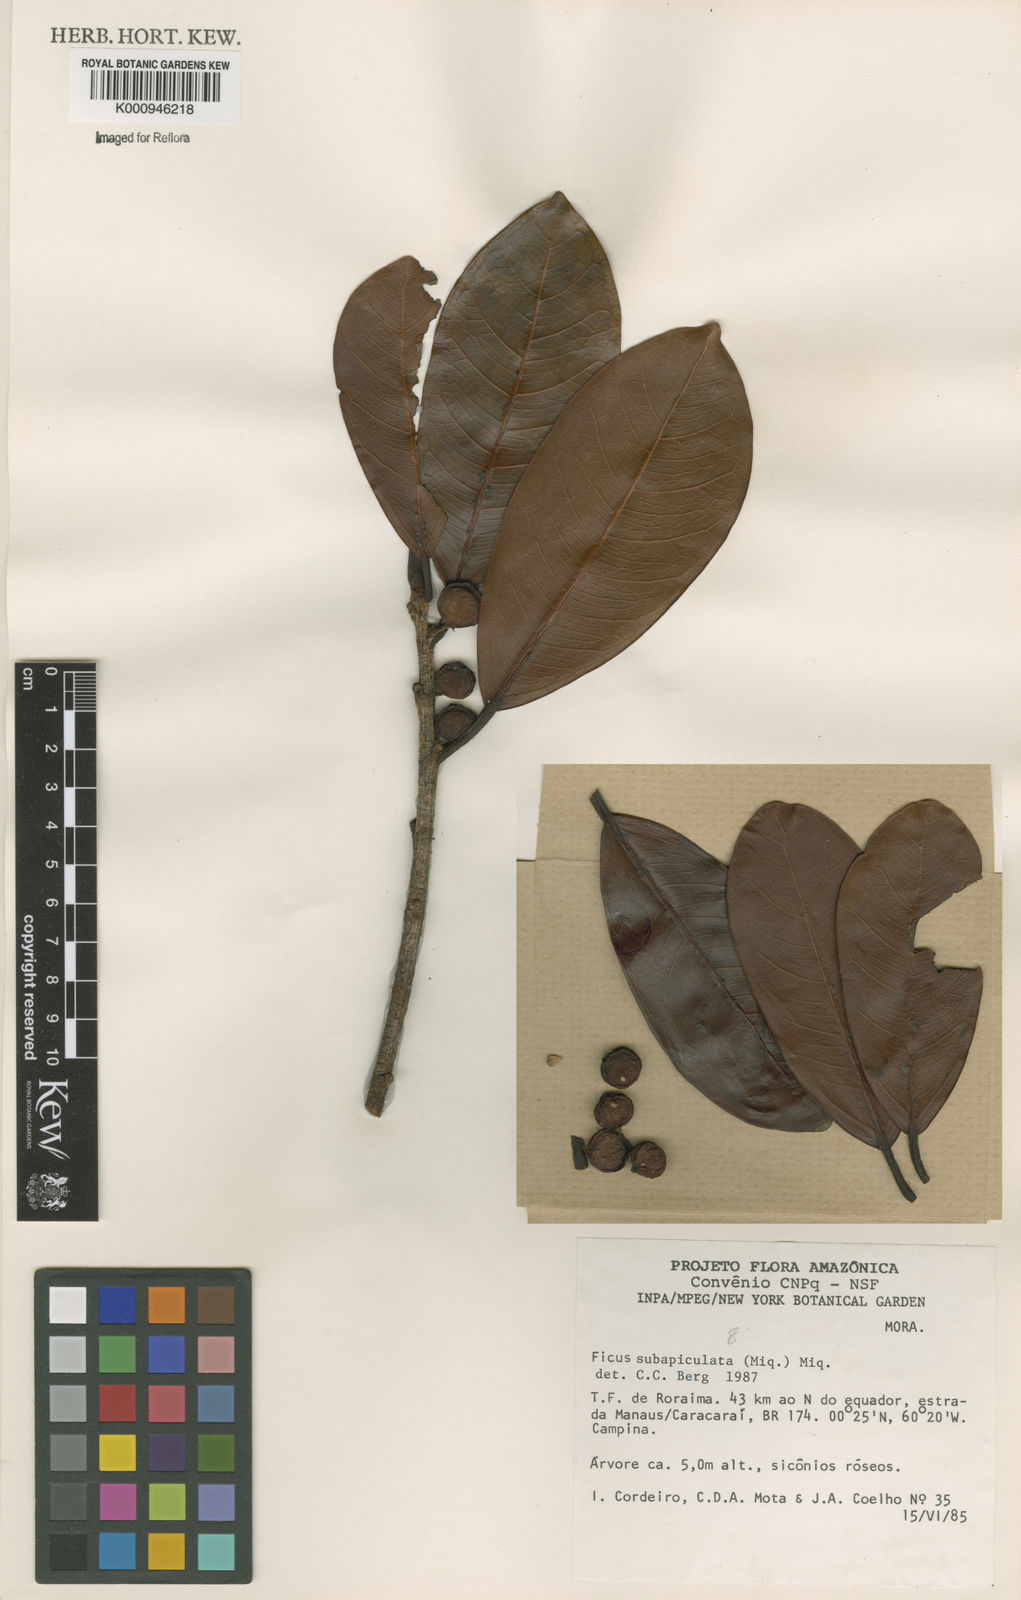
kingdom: Plantae
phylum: Tracheophyta
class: Magnoliopsida
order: Rosales
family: Moraceae
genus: Ficus
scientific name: Ficus americana
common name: Jamaican cherry fig
